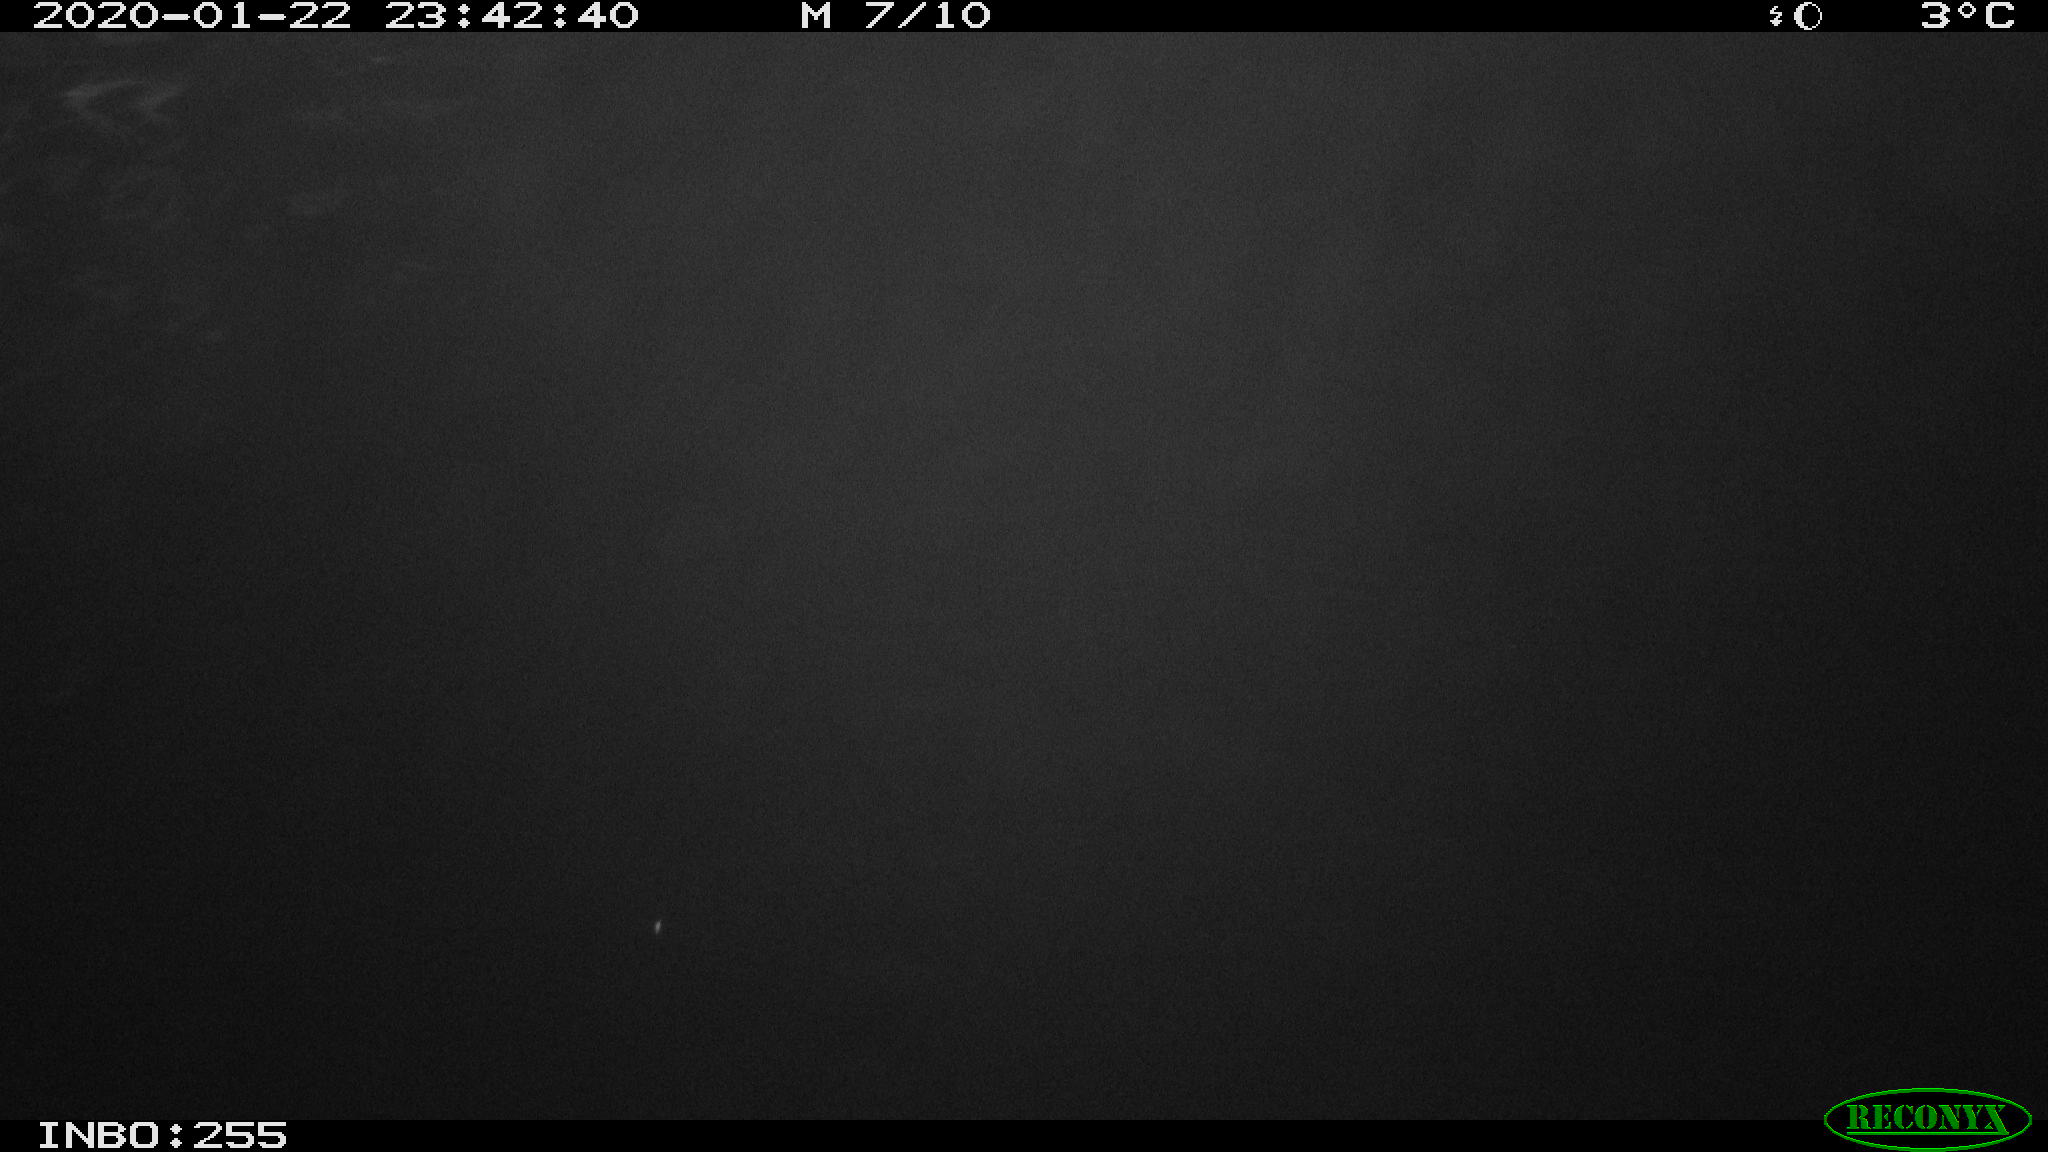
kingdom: Animalia
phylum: Chordata
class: Mammalia
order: Rodentia
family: Cricetidae
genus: Ondatra
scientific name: Ondatra zibethicus
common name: Muskrat
